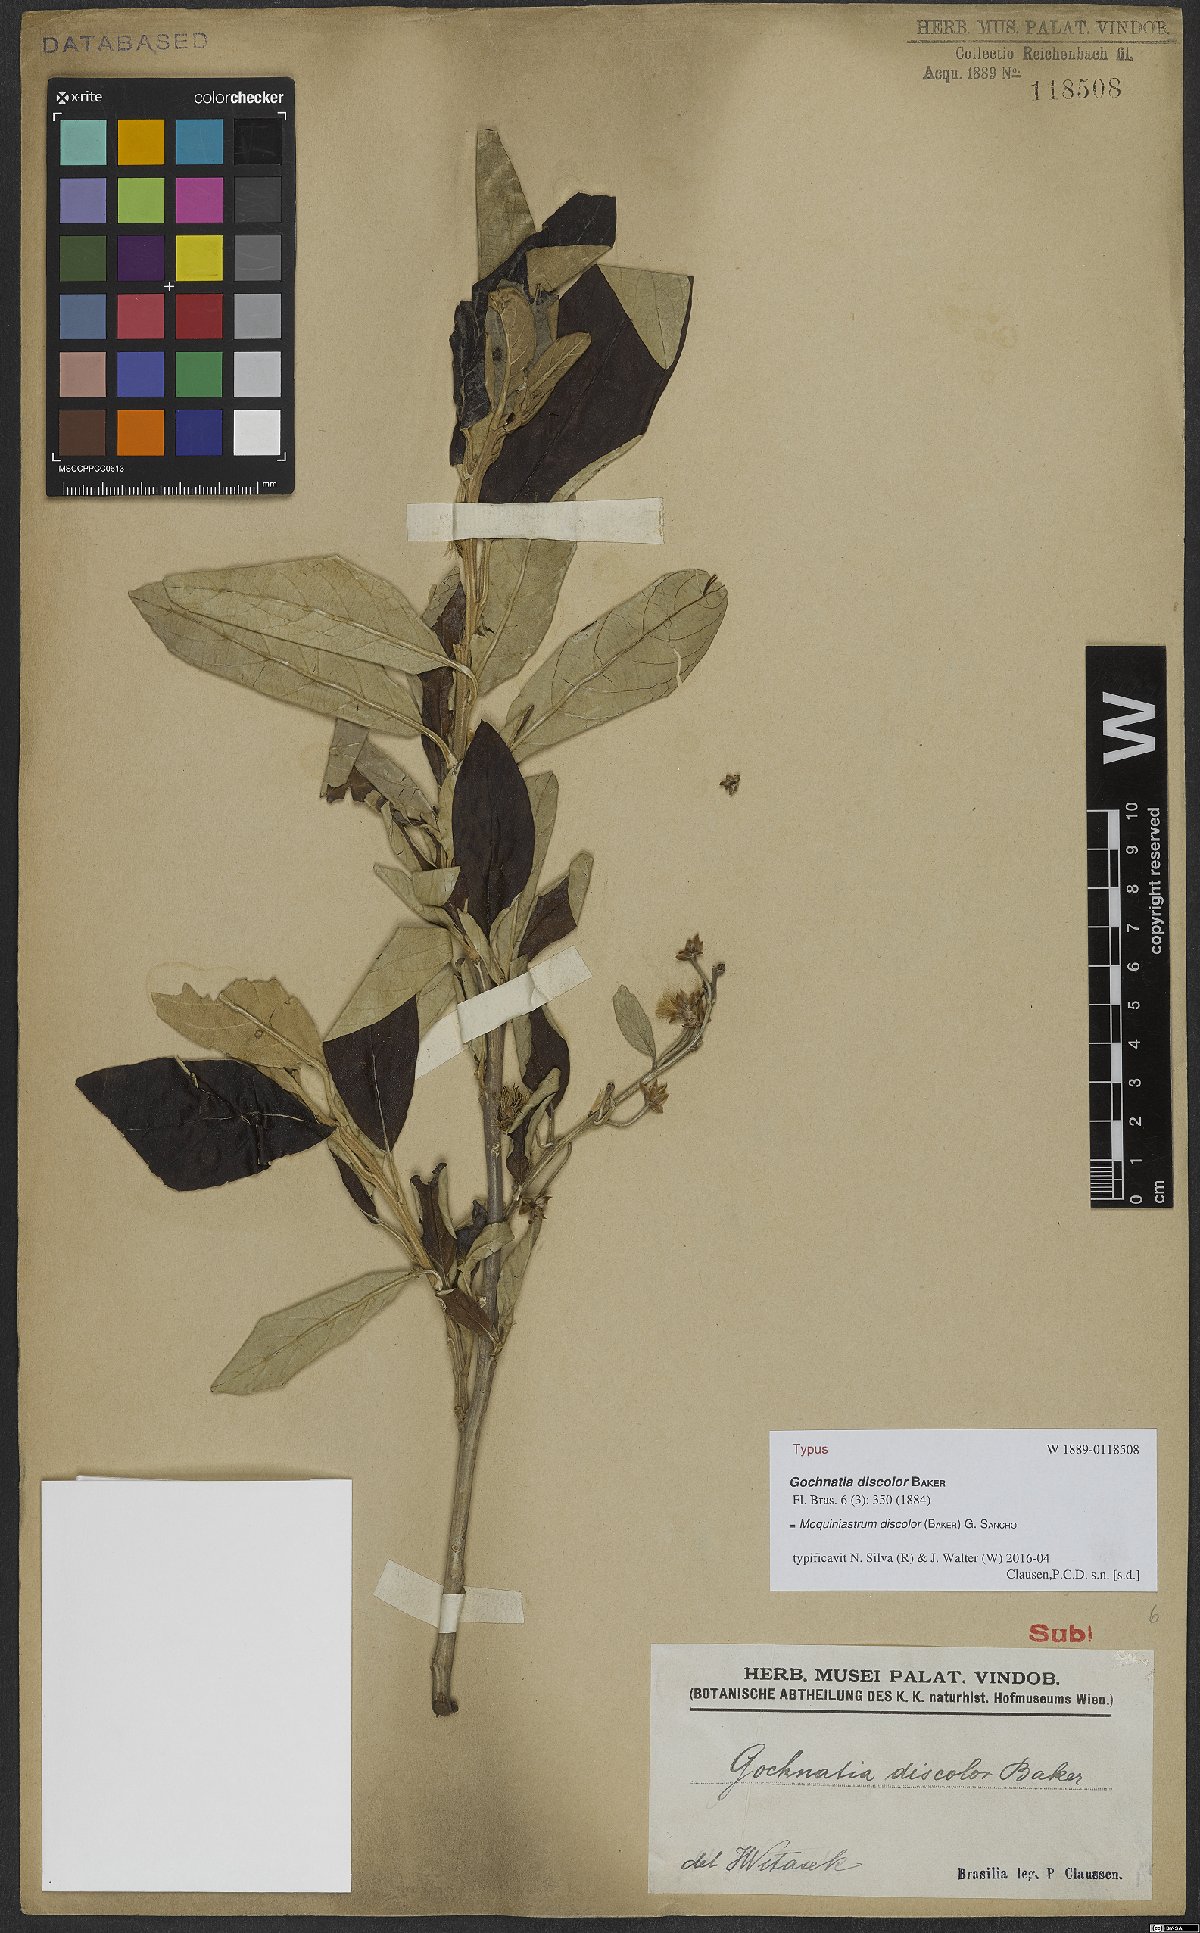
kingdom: Plantae
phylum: Tracheophyta
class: Magnoliopsida
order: Asterales
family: Asteraceae
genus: Moquiniastrum
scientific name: Moquiniastrum discolor
